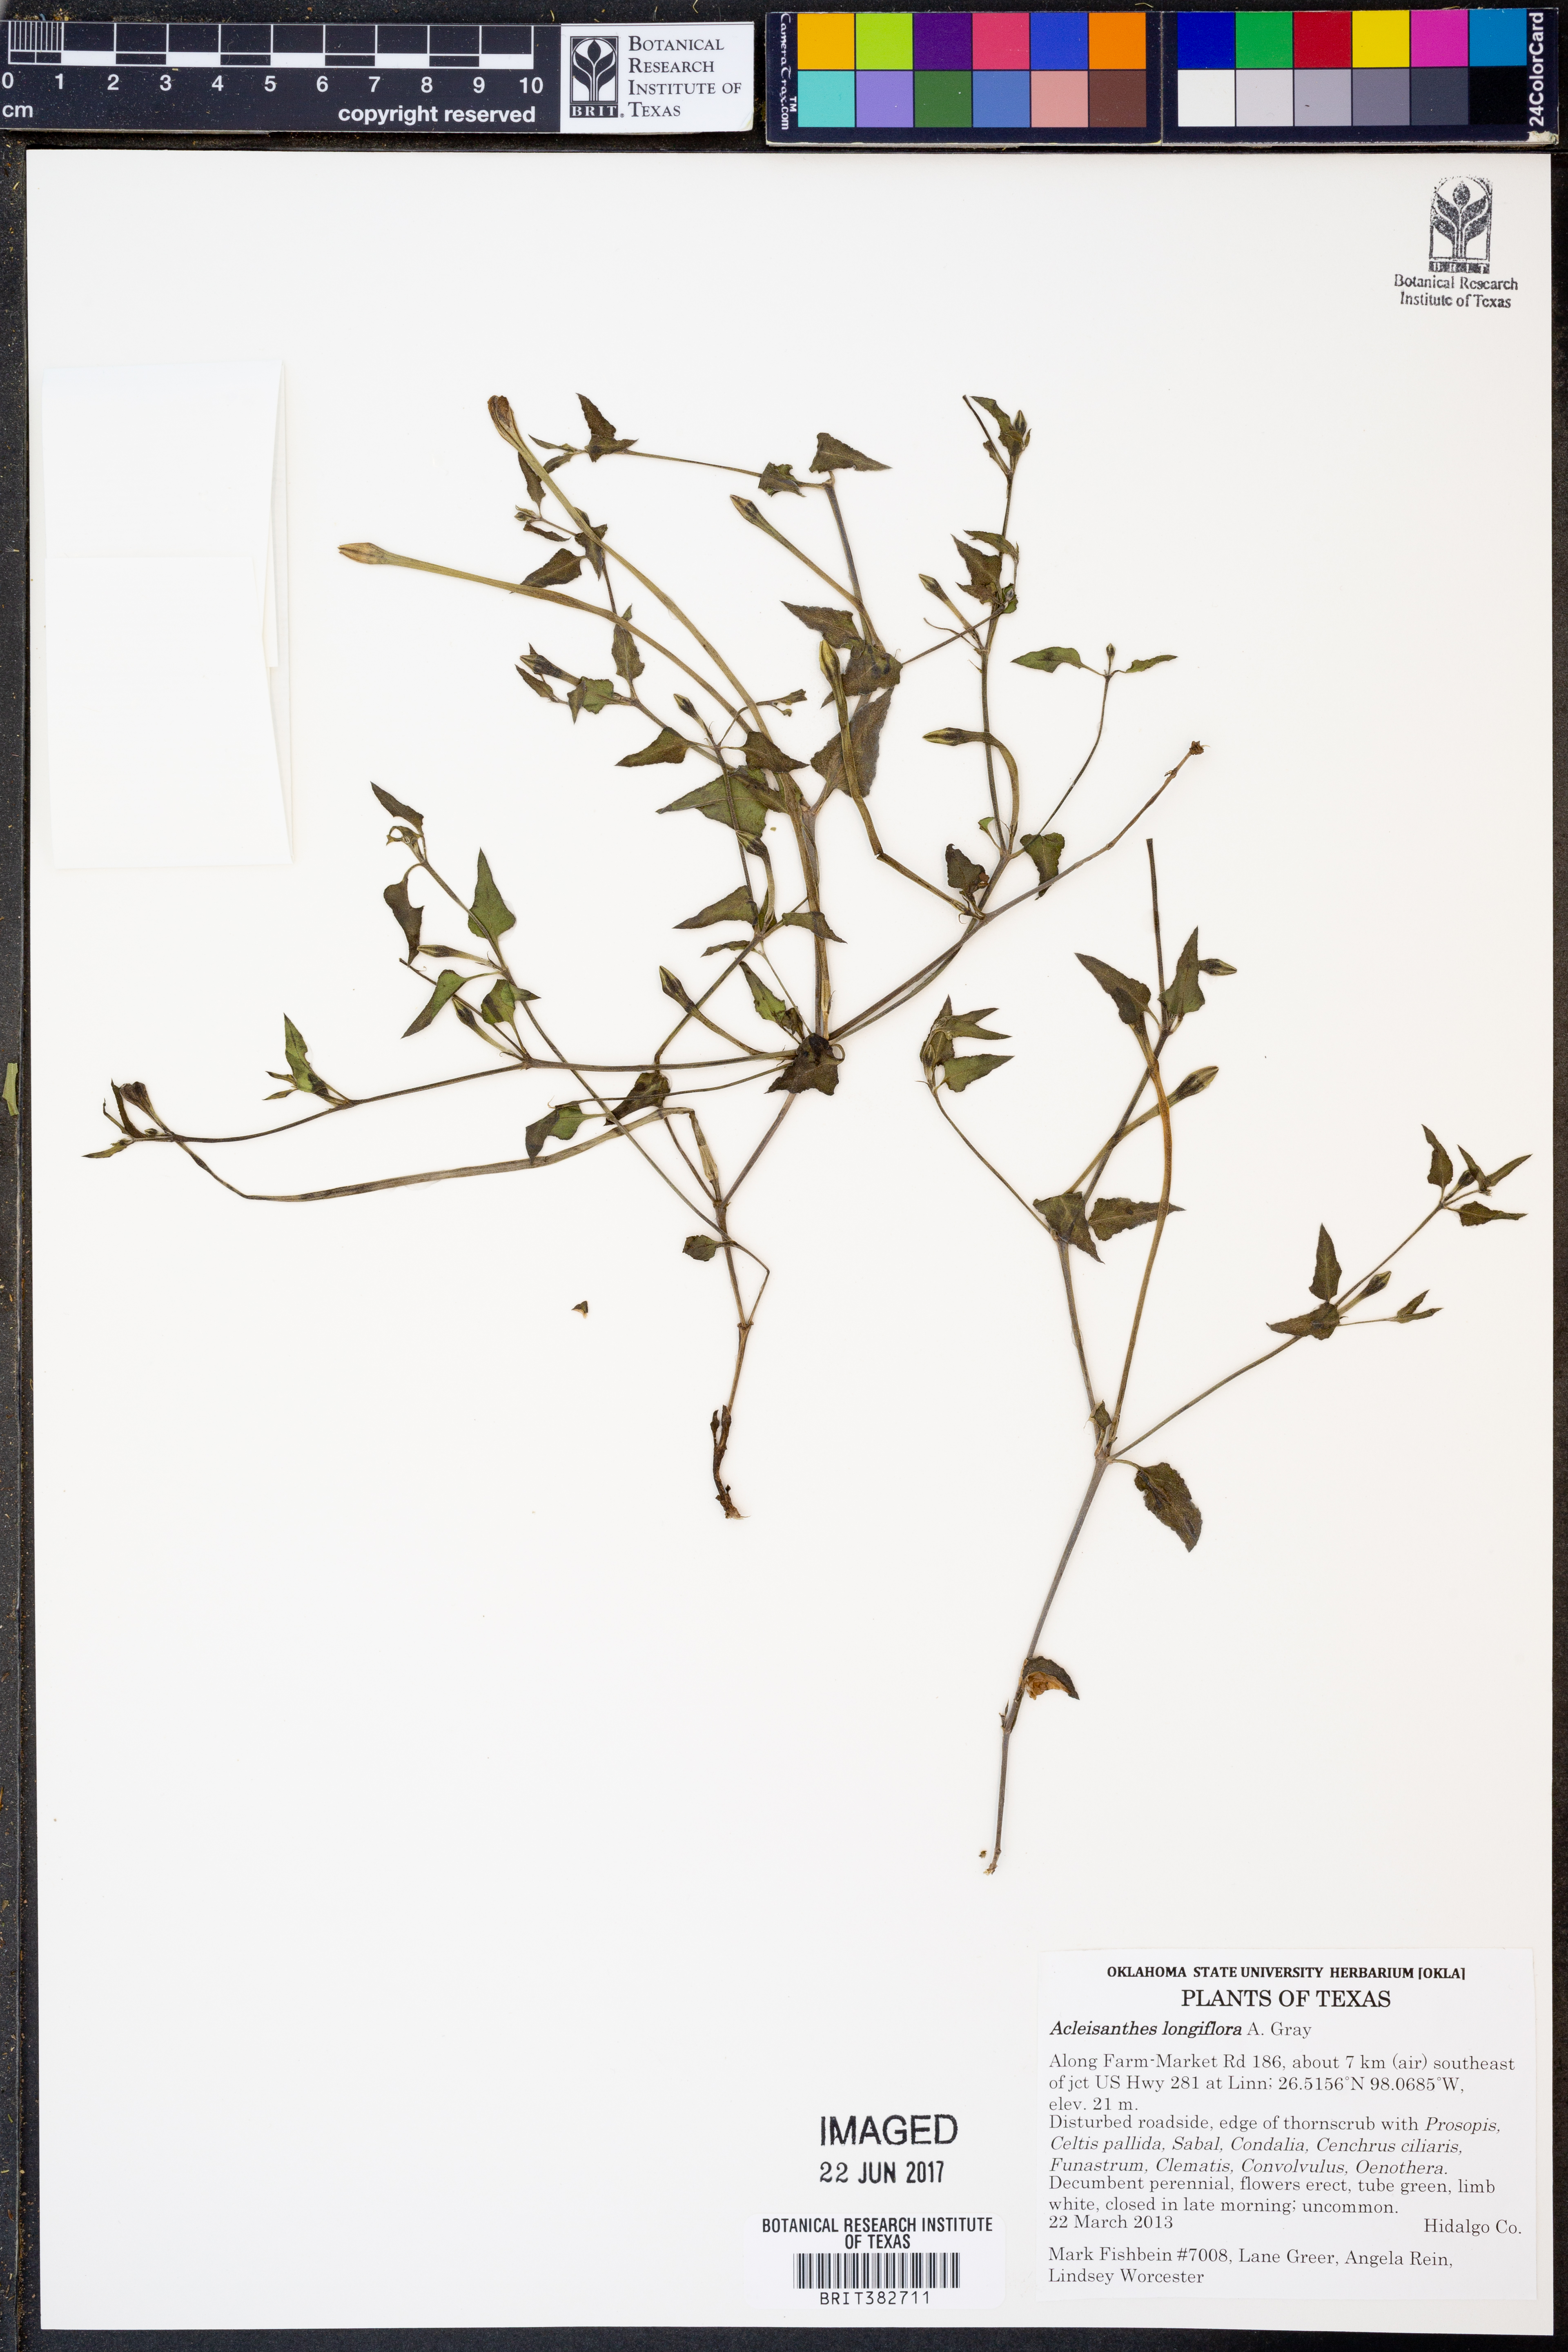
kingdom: Plantae
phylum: Tracheophyta
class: Magnoliopsida
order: Caryophyllales
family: Nyctaginaceae
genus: Acleisanthes
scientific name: Acleisanthes longiflora
